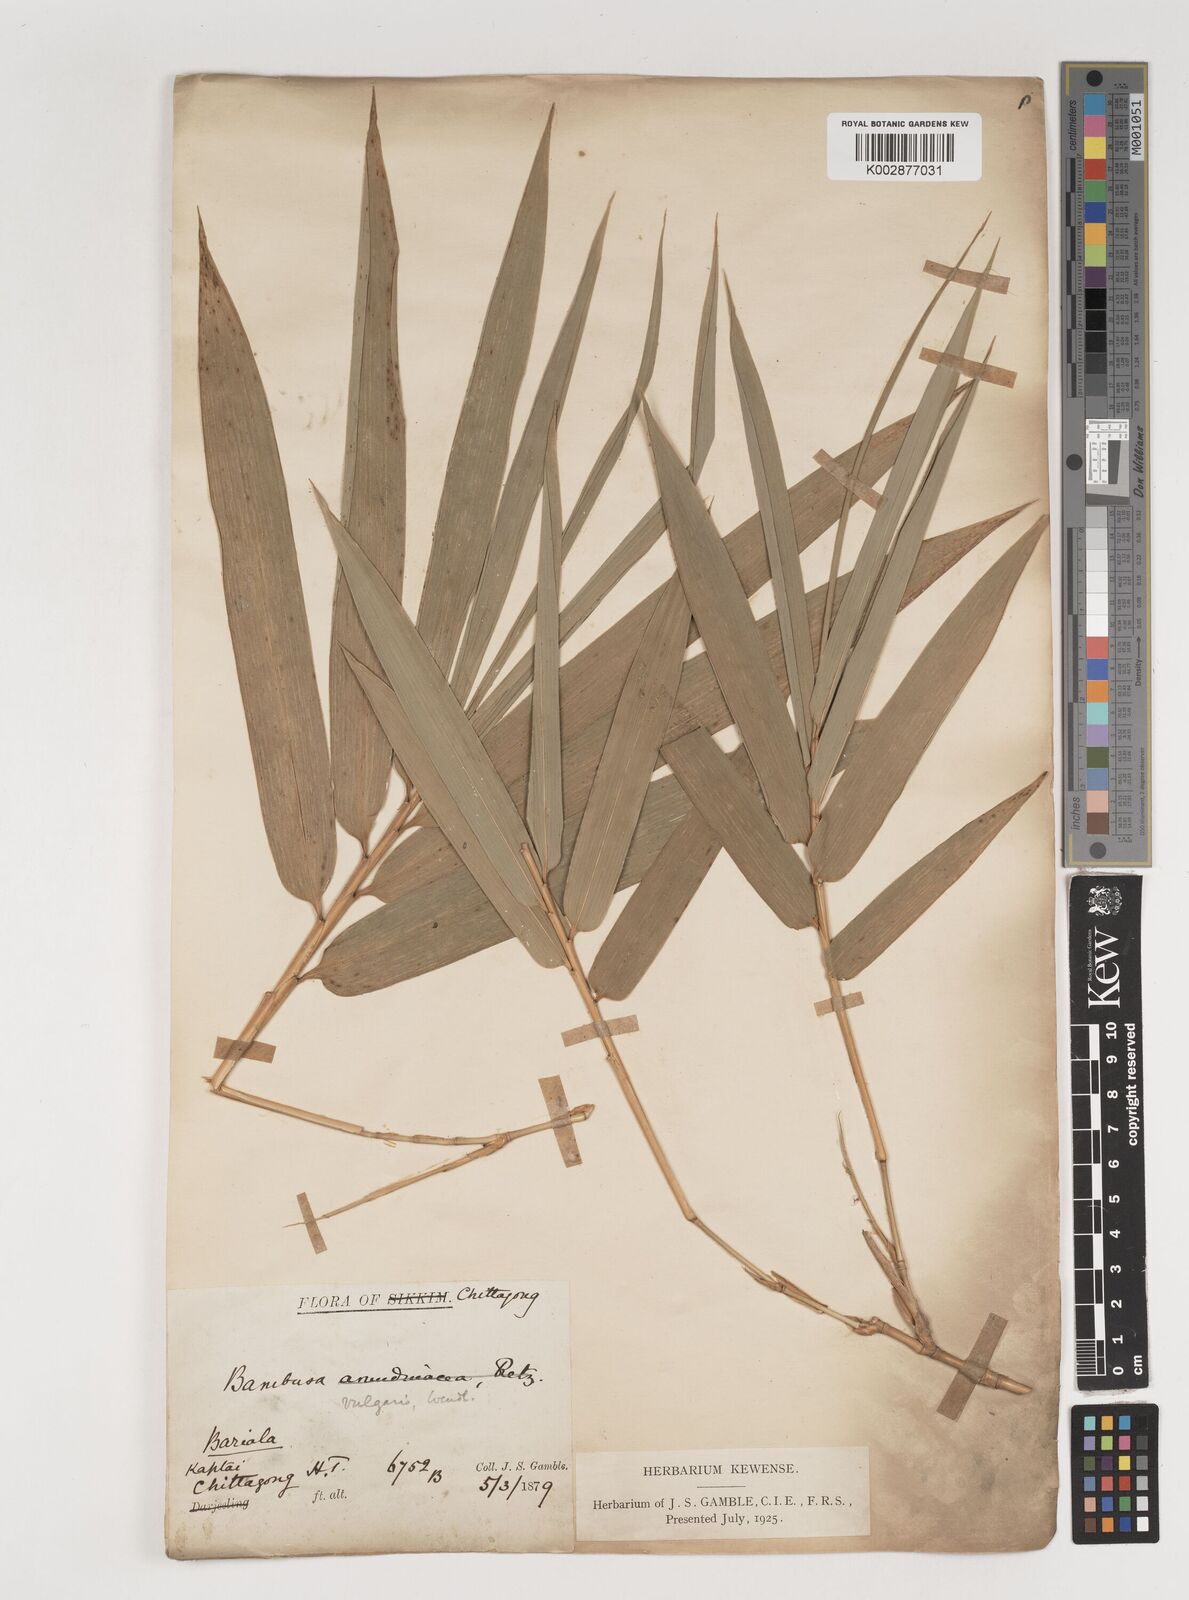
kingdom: Plantae
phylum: Tracheophyta
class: Liliopsida
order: Poales
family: Poaceae
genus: Bambusa
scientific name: Bambusa vulgaris
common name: Common bamboo
